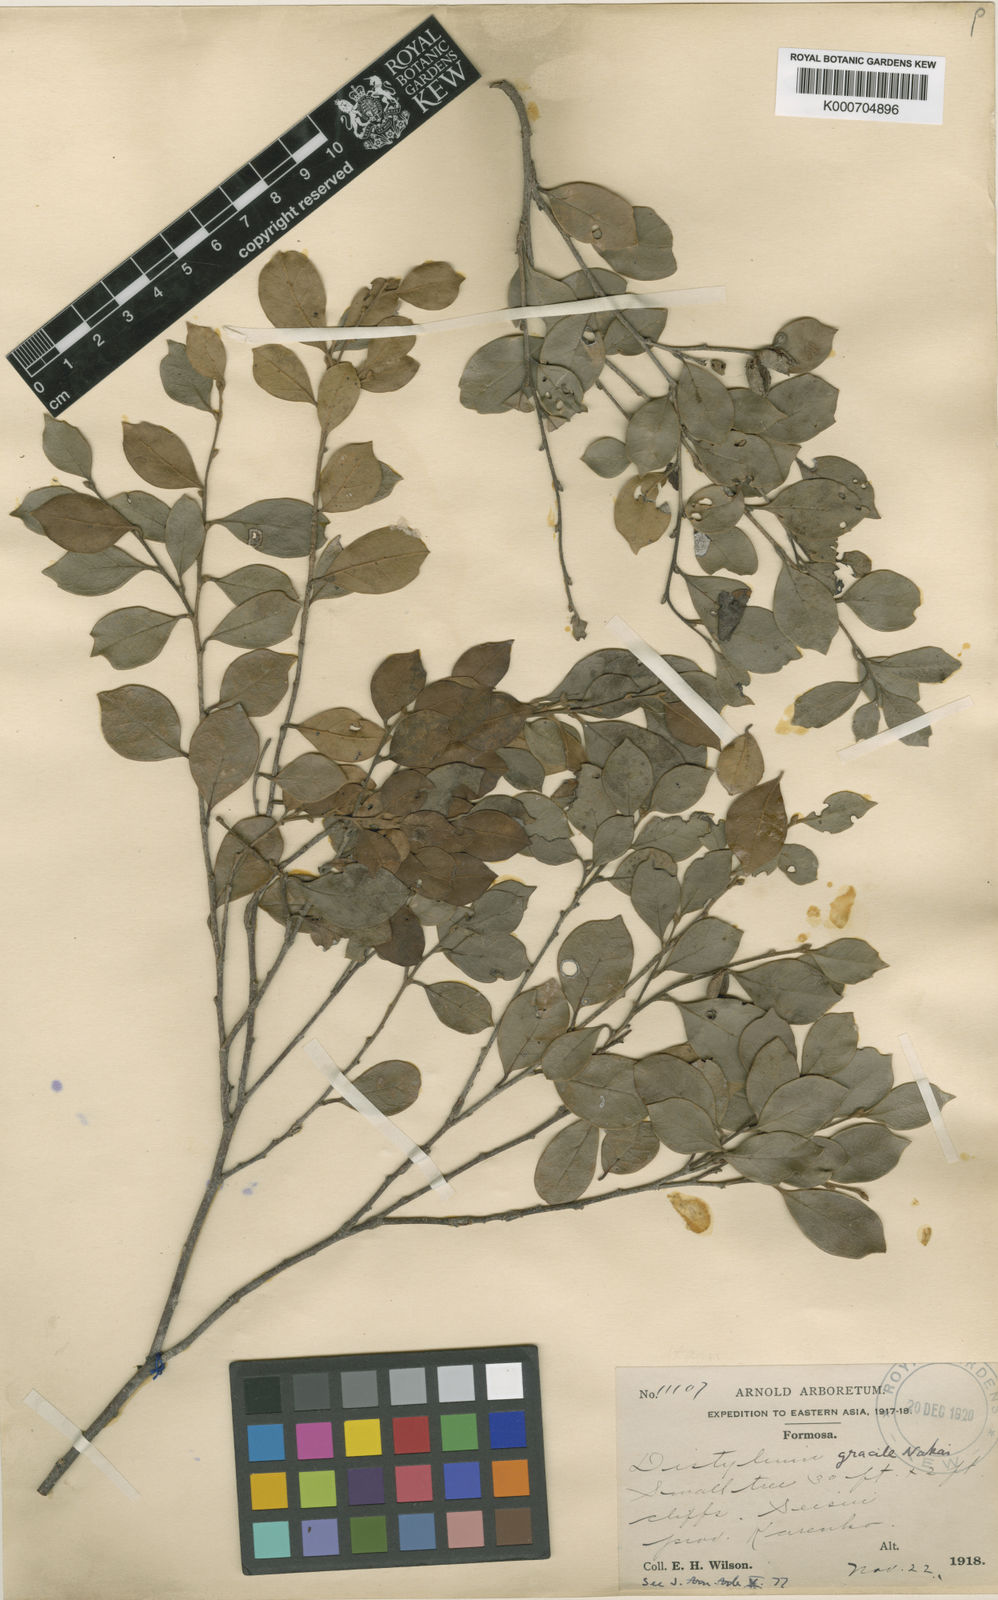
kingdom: Plantae
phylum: Tracheophyta
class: Magnoliopsida
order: Saxifragales
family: Hamamelidaceae
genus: Distylium
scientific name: Distylium gracile
